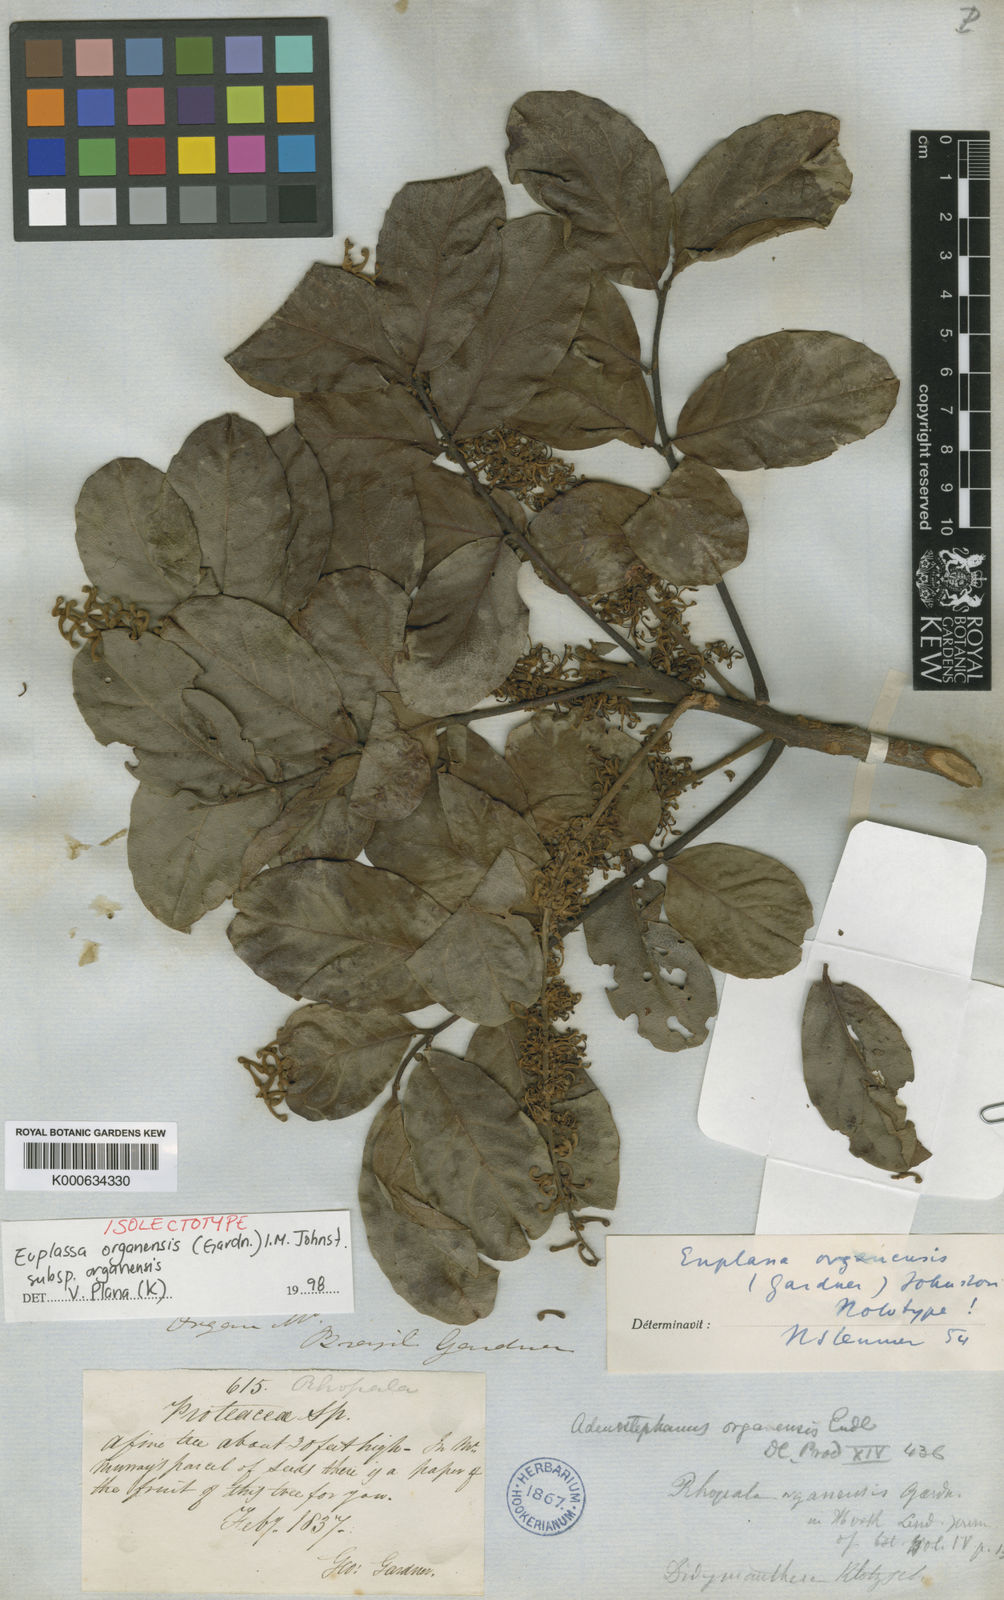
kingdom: Plantae
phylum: Tracheophyta
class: Magnoliopsida
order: Proteales
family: Proteaceae
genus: Euplassa
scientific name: Euplassa organensis
